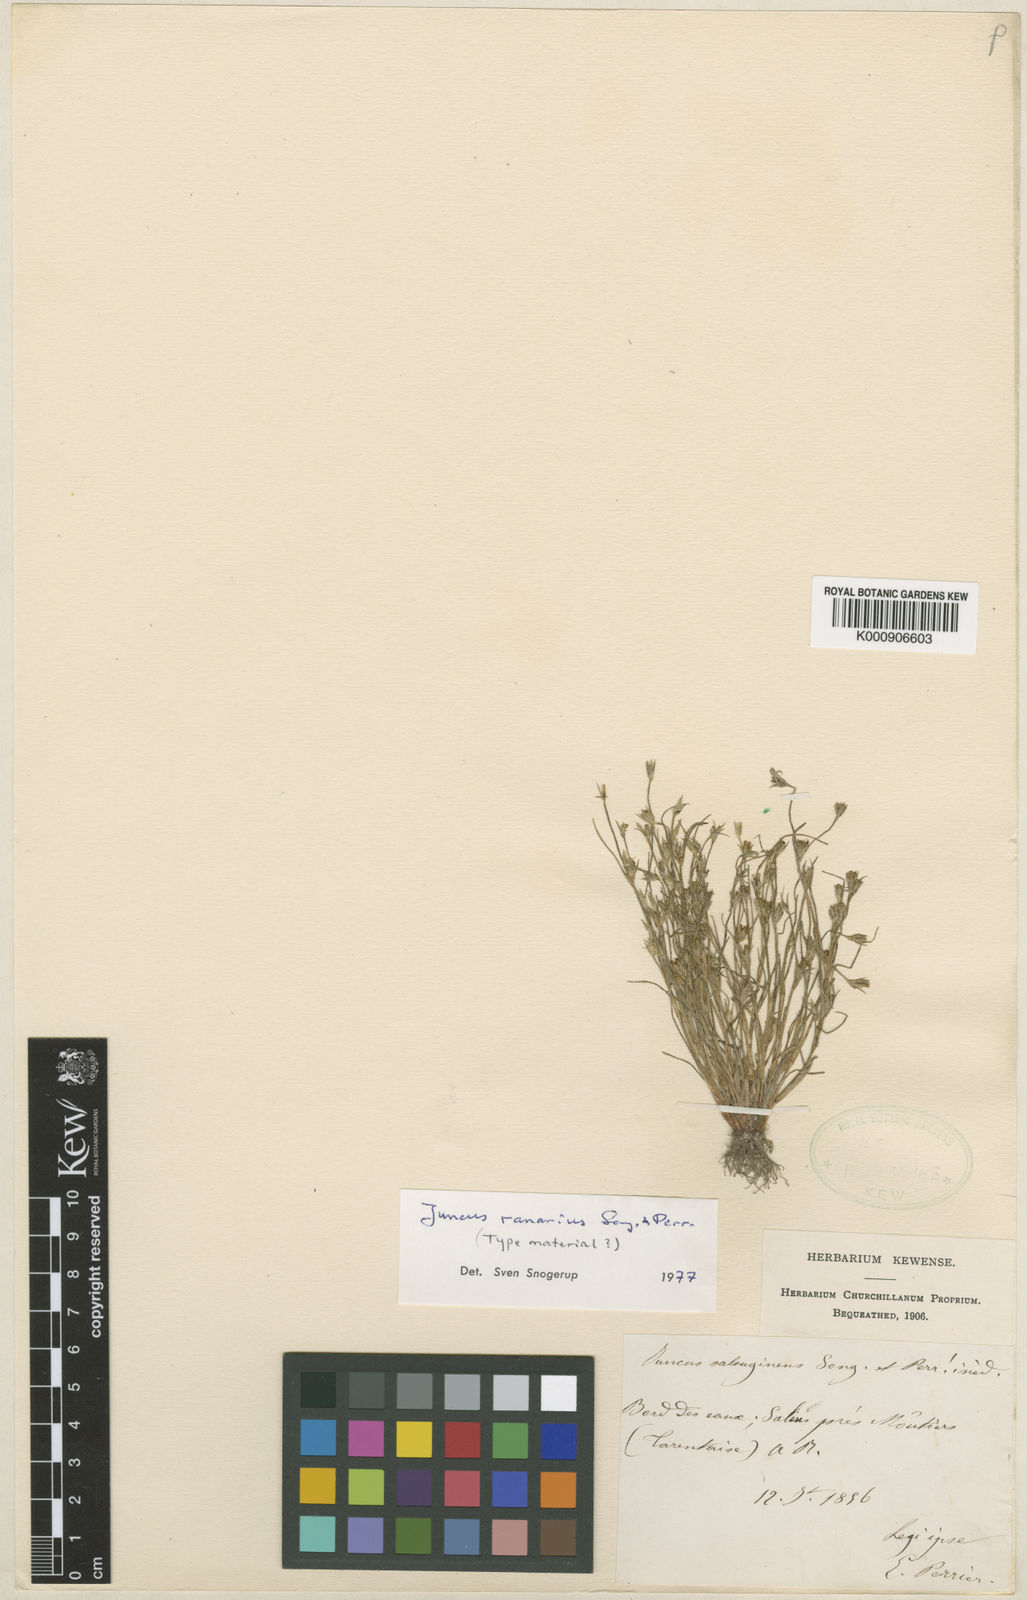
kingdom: Plantae
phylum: Tracheophyta
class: Liliopsida
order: Poales
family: Juncaceae
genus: Juncus
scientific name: Juncus hybridus
